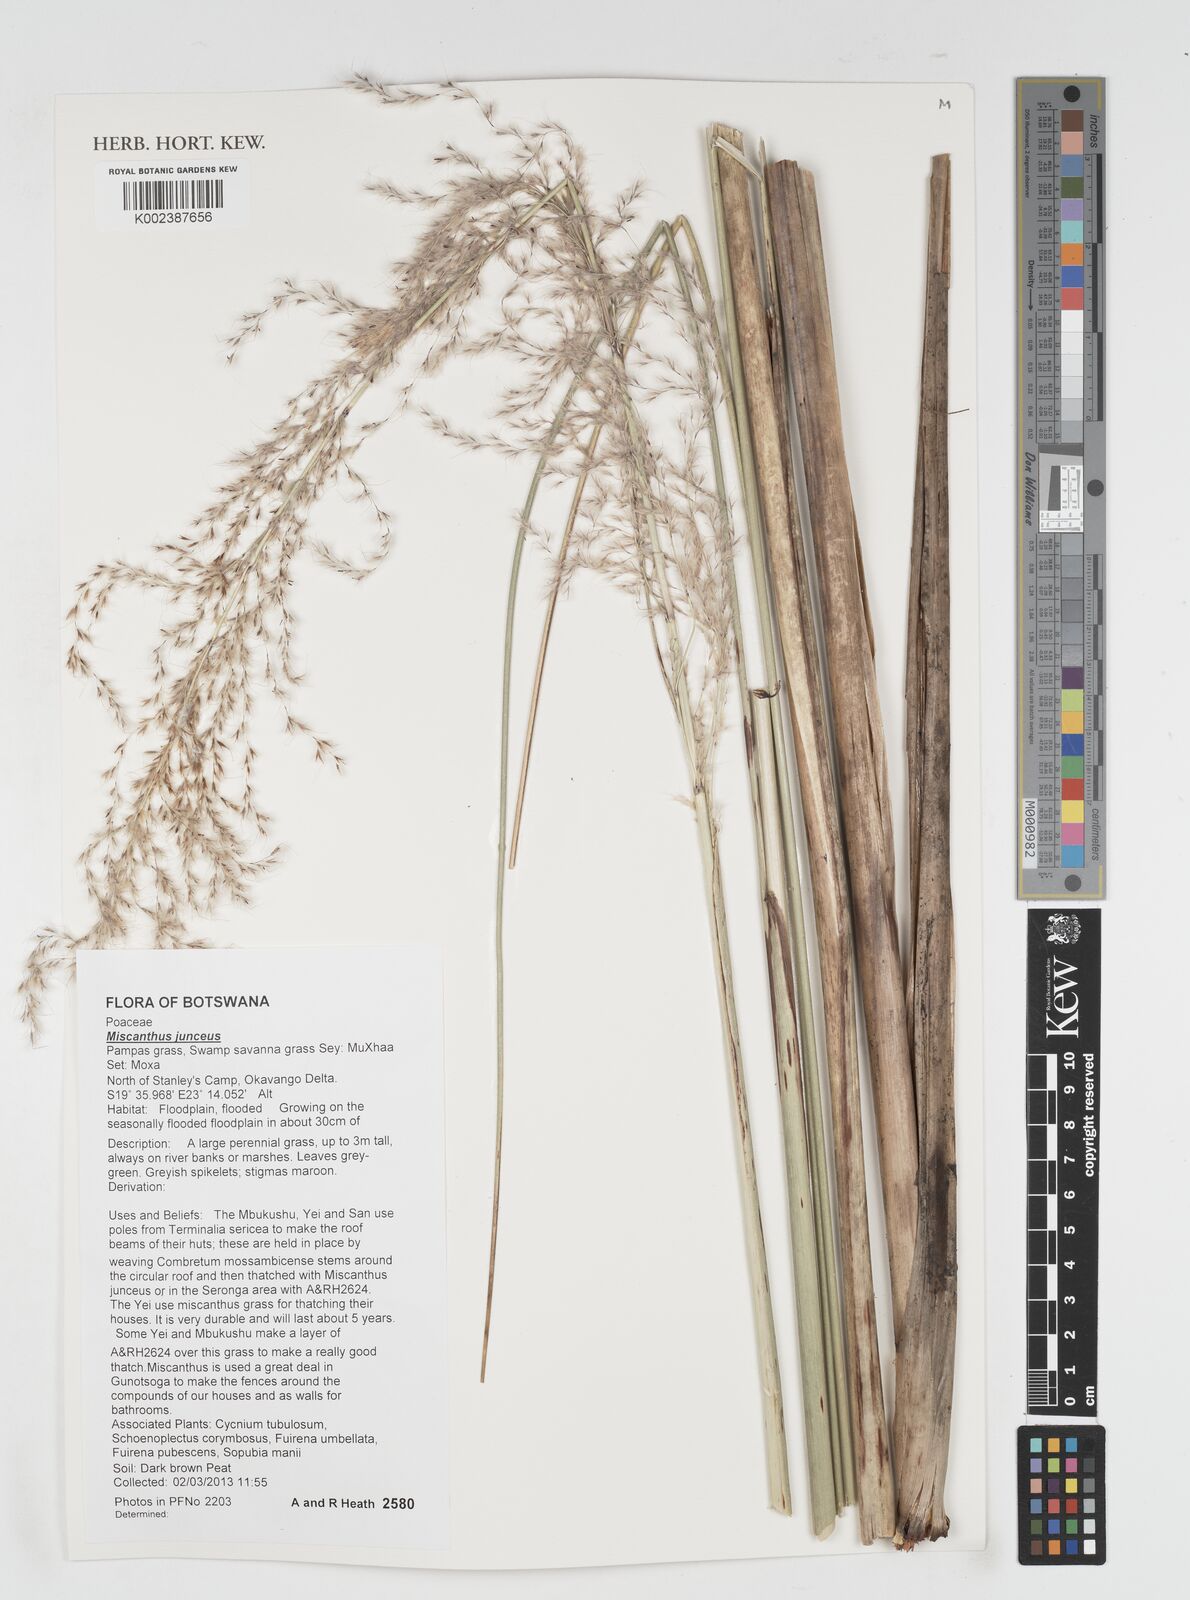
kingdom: Plantae
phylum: Tracheophyta
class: Liliopsida
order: Poales
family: Poaceae
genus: Miscanthidium
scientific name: Miscanthidium junceum
